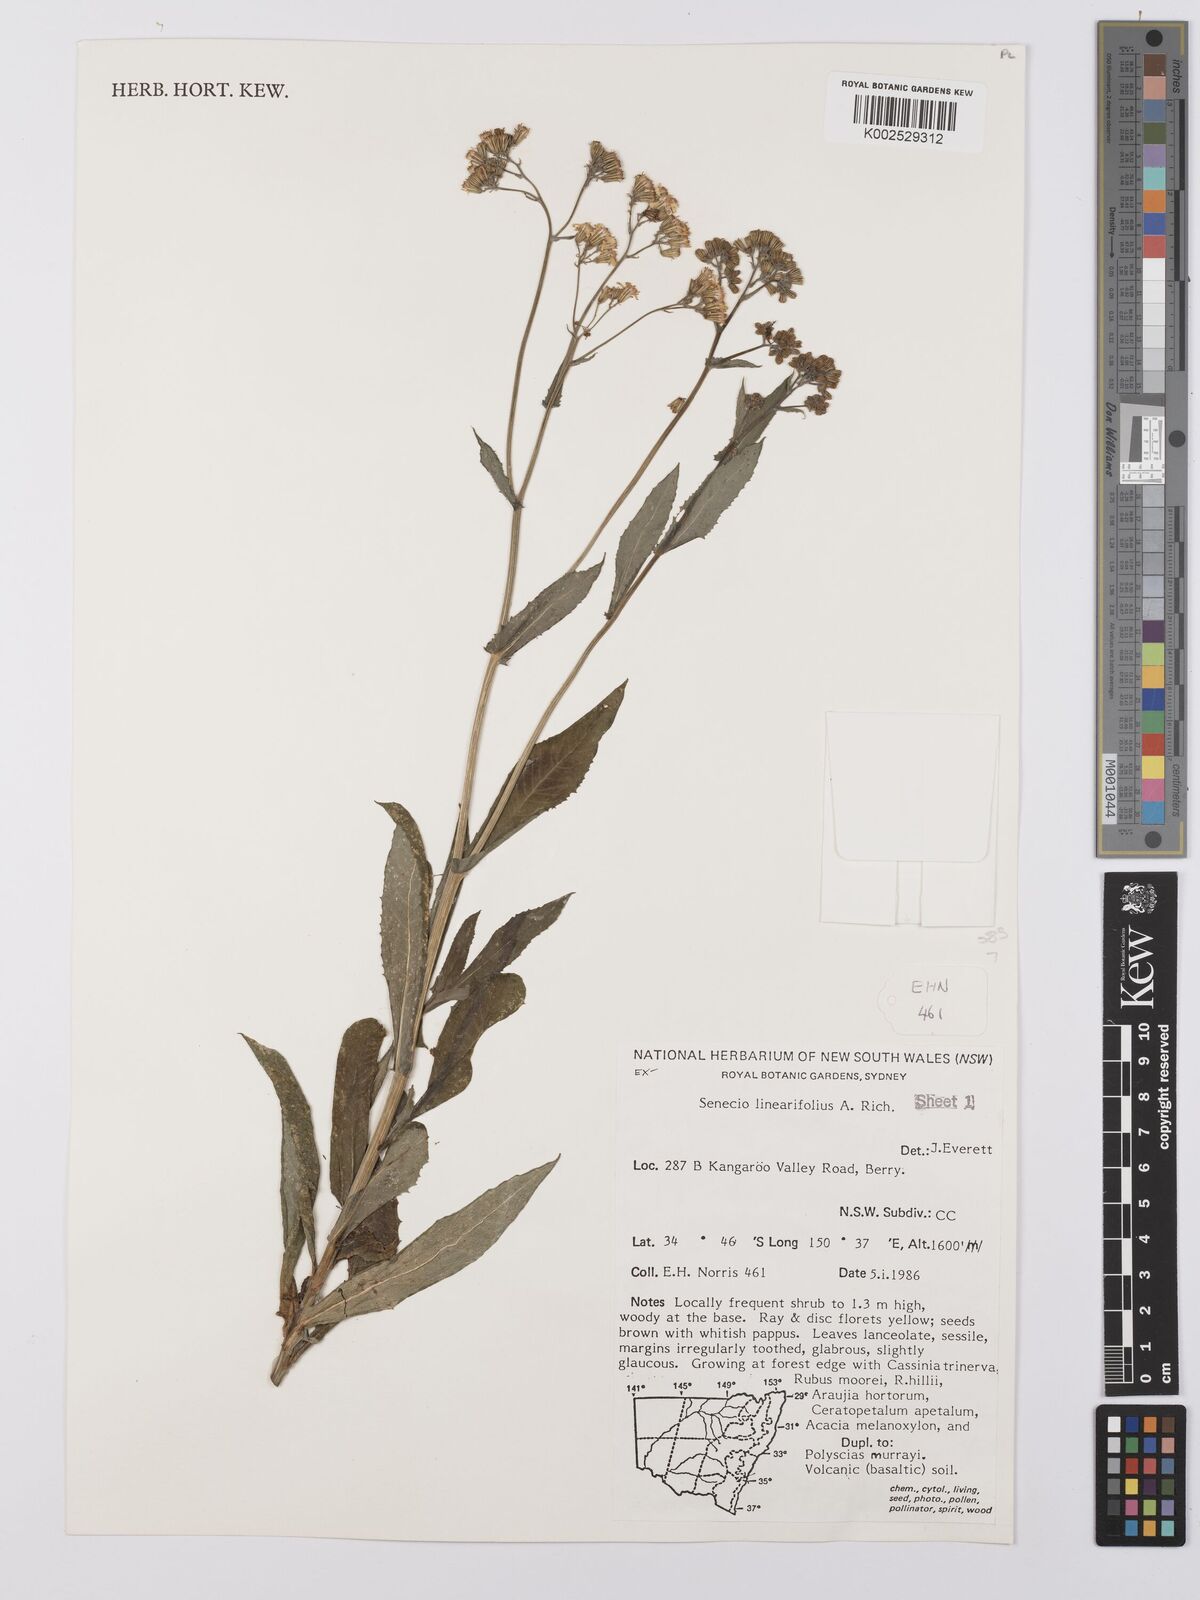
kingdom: Plantae
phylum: Tracheophyta
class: Magnoliopsida
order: Asterales
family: Asteraceae
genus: Senecio
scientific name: Senecio linearifolius
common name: Fireweed groundsel
